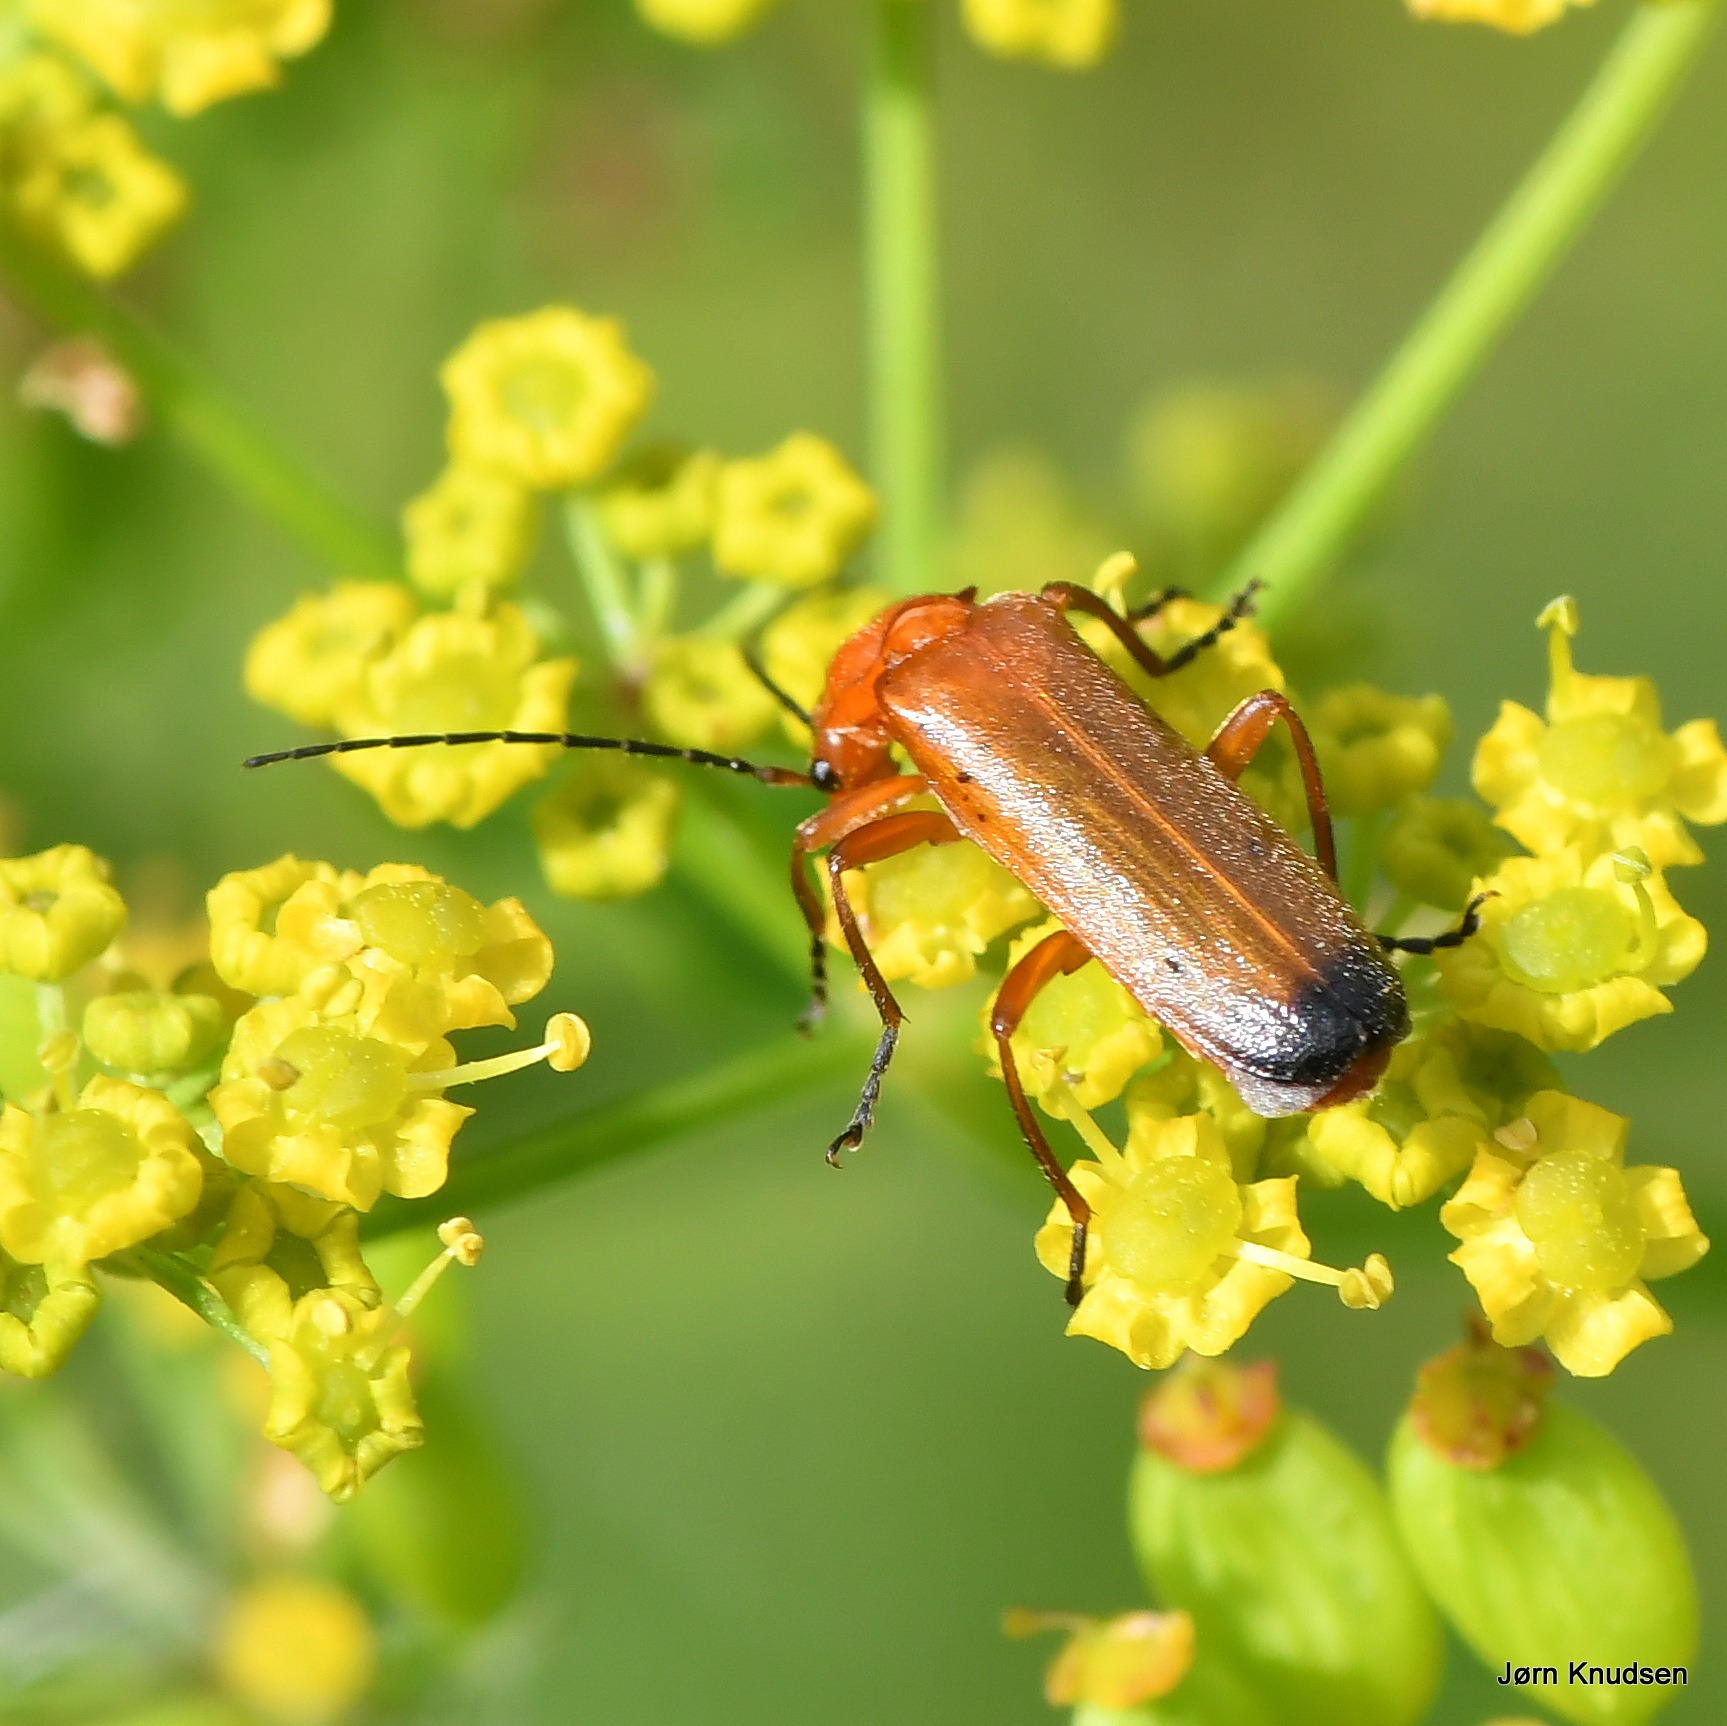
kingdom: Animalia
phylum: Arthropoda
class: Insecta
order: Coleoptera
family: Cantharidae
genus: Rhagonycha
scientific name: Rhagonycha fulva
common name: Præstebille
